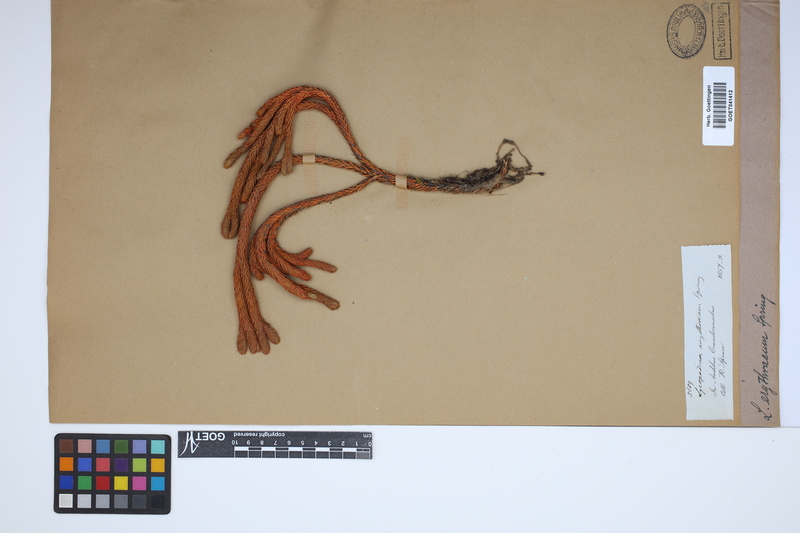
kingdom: Plantae
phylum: Tracheophyta
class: Lycopodiopsida
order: Lycopodiales
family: Lycopodiaceae
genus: Phlegmariurus
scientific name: Phlegmariurus crassus
